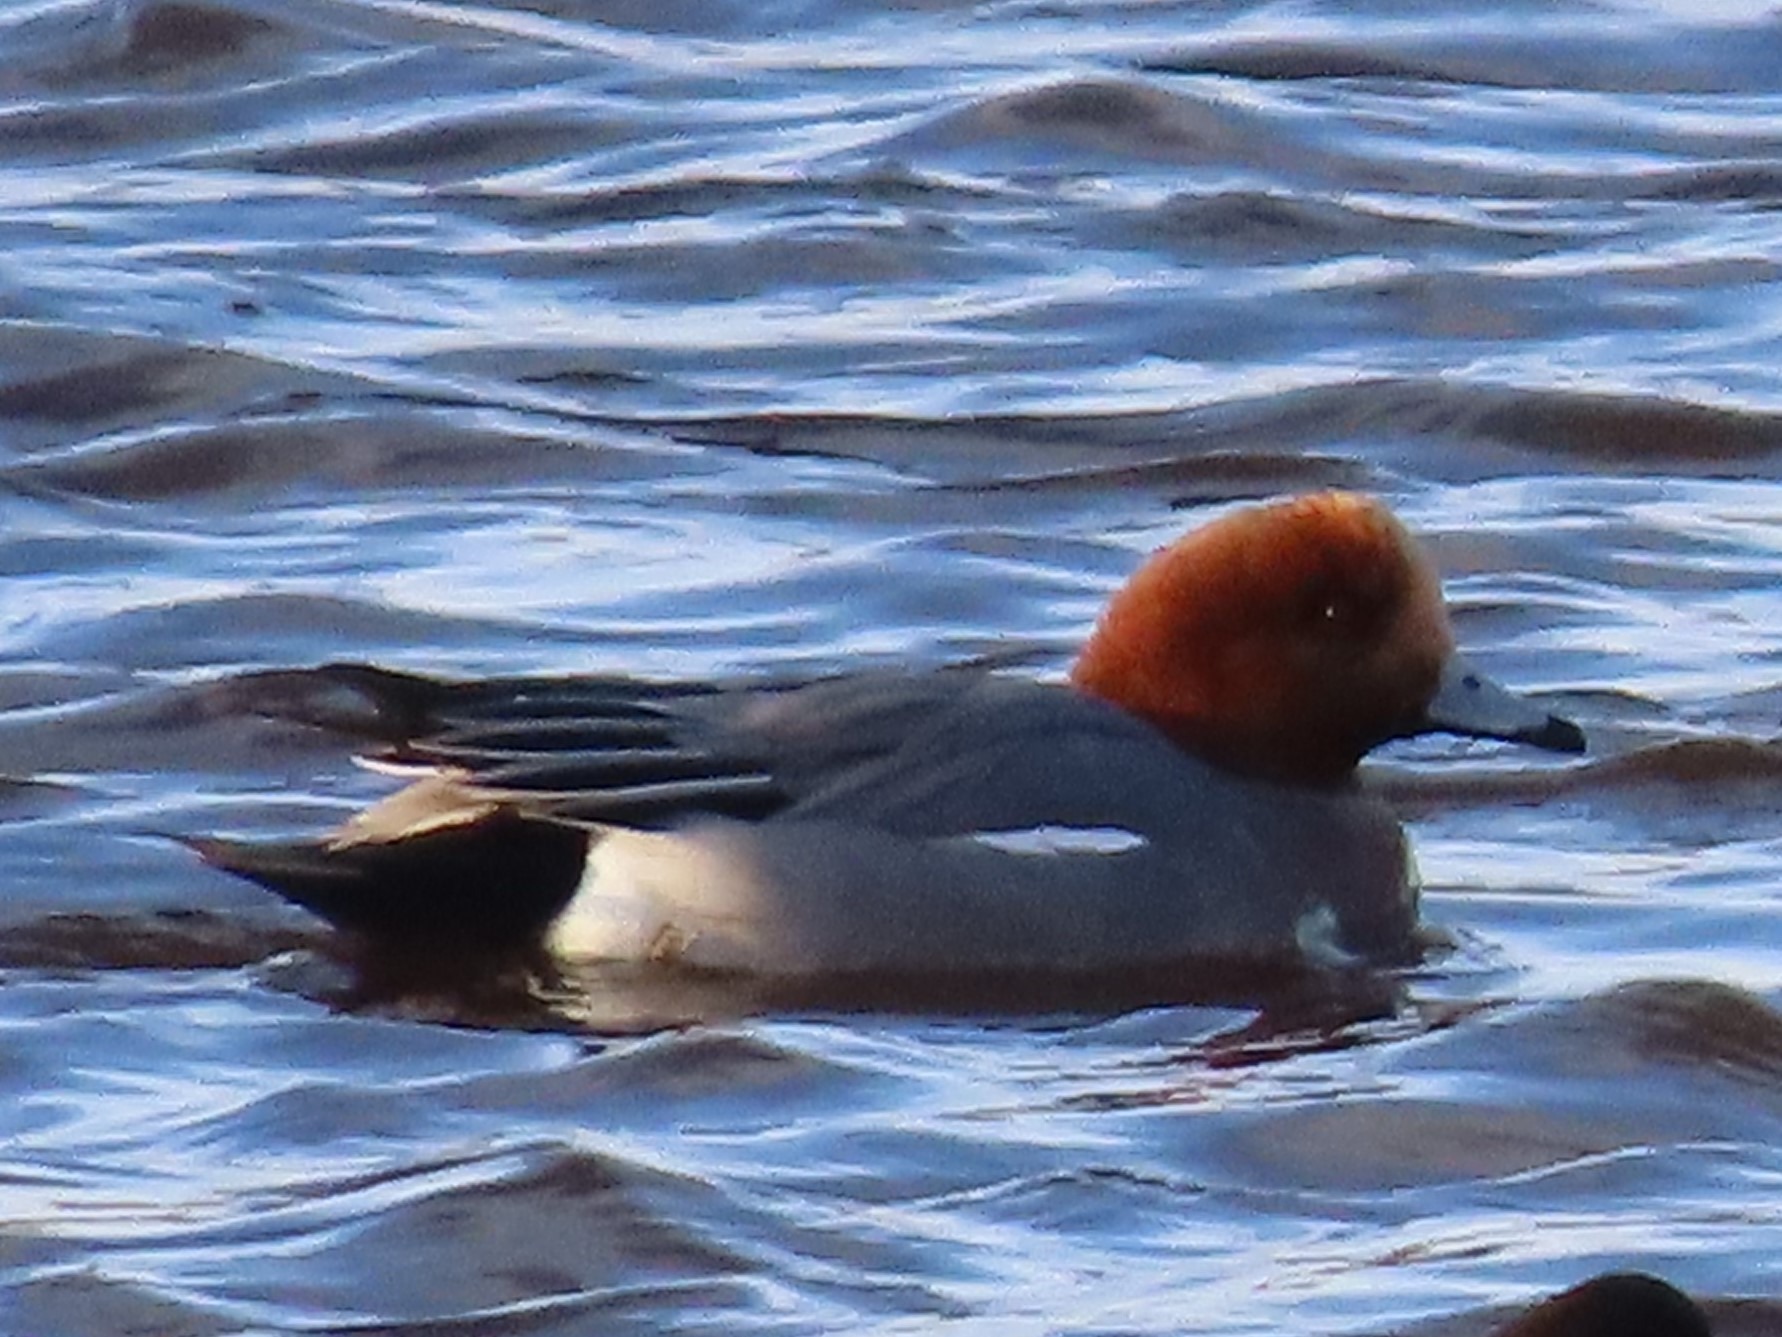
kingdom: Animalia
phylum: Chordata
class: Aves
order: Anseriformes
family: Anatidae
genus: Mareca
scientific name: Mareca penelope
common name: Pibeand
